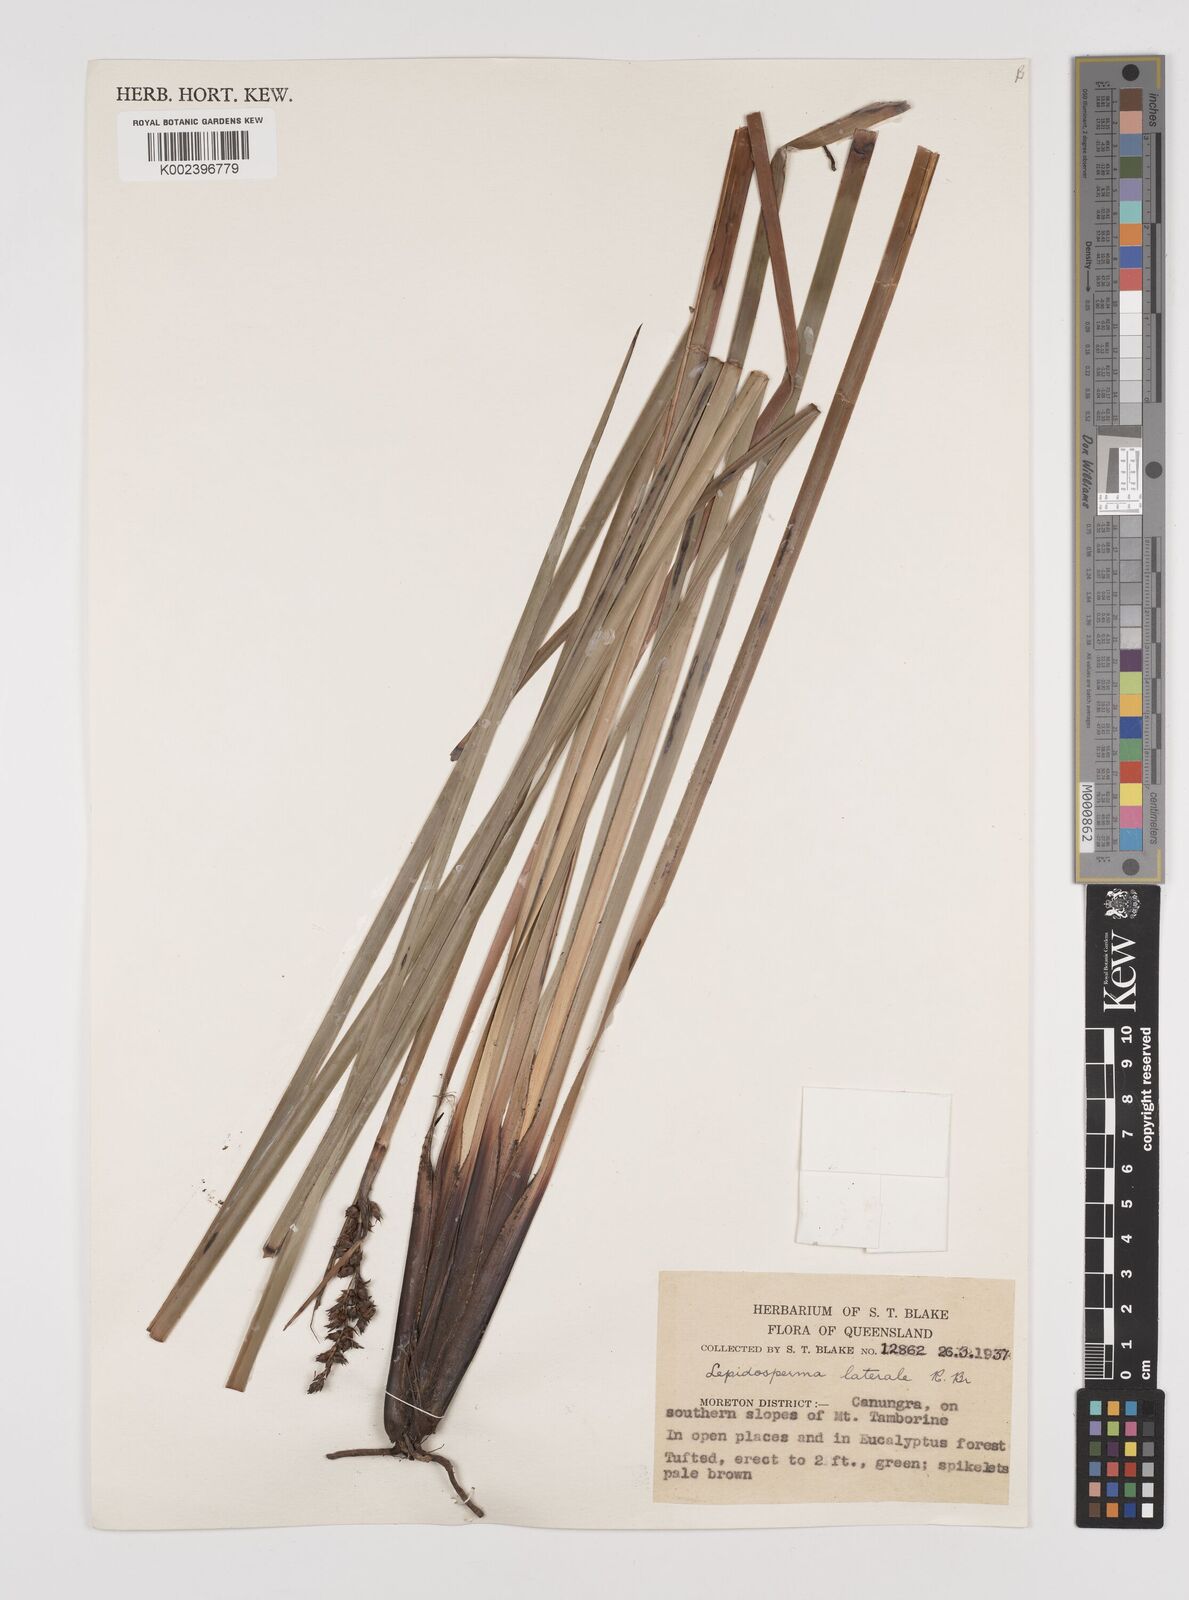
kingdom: Plantae
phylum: Tracheophyta
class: Liliopsida
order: Poales
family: Cyperaceae
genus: Lepidosperma
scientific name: Lepidosperma laterale
